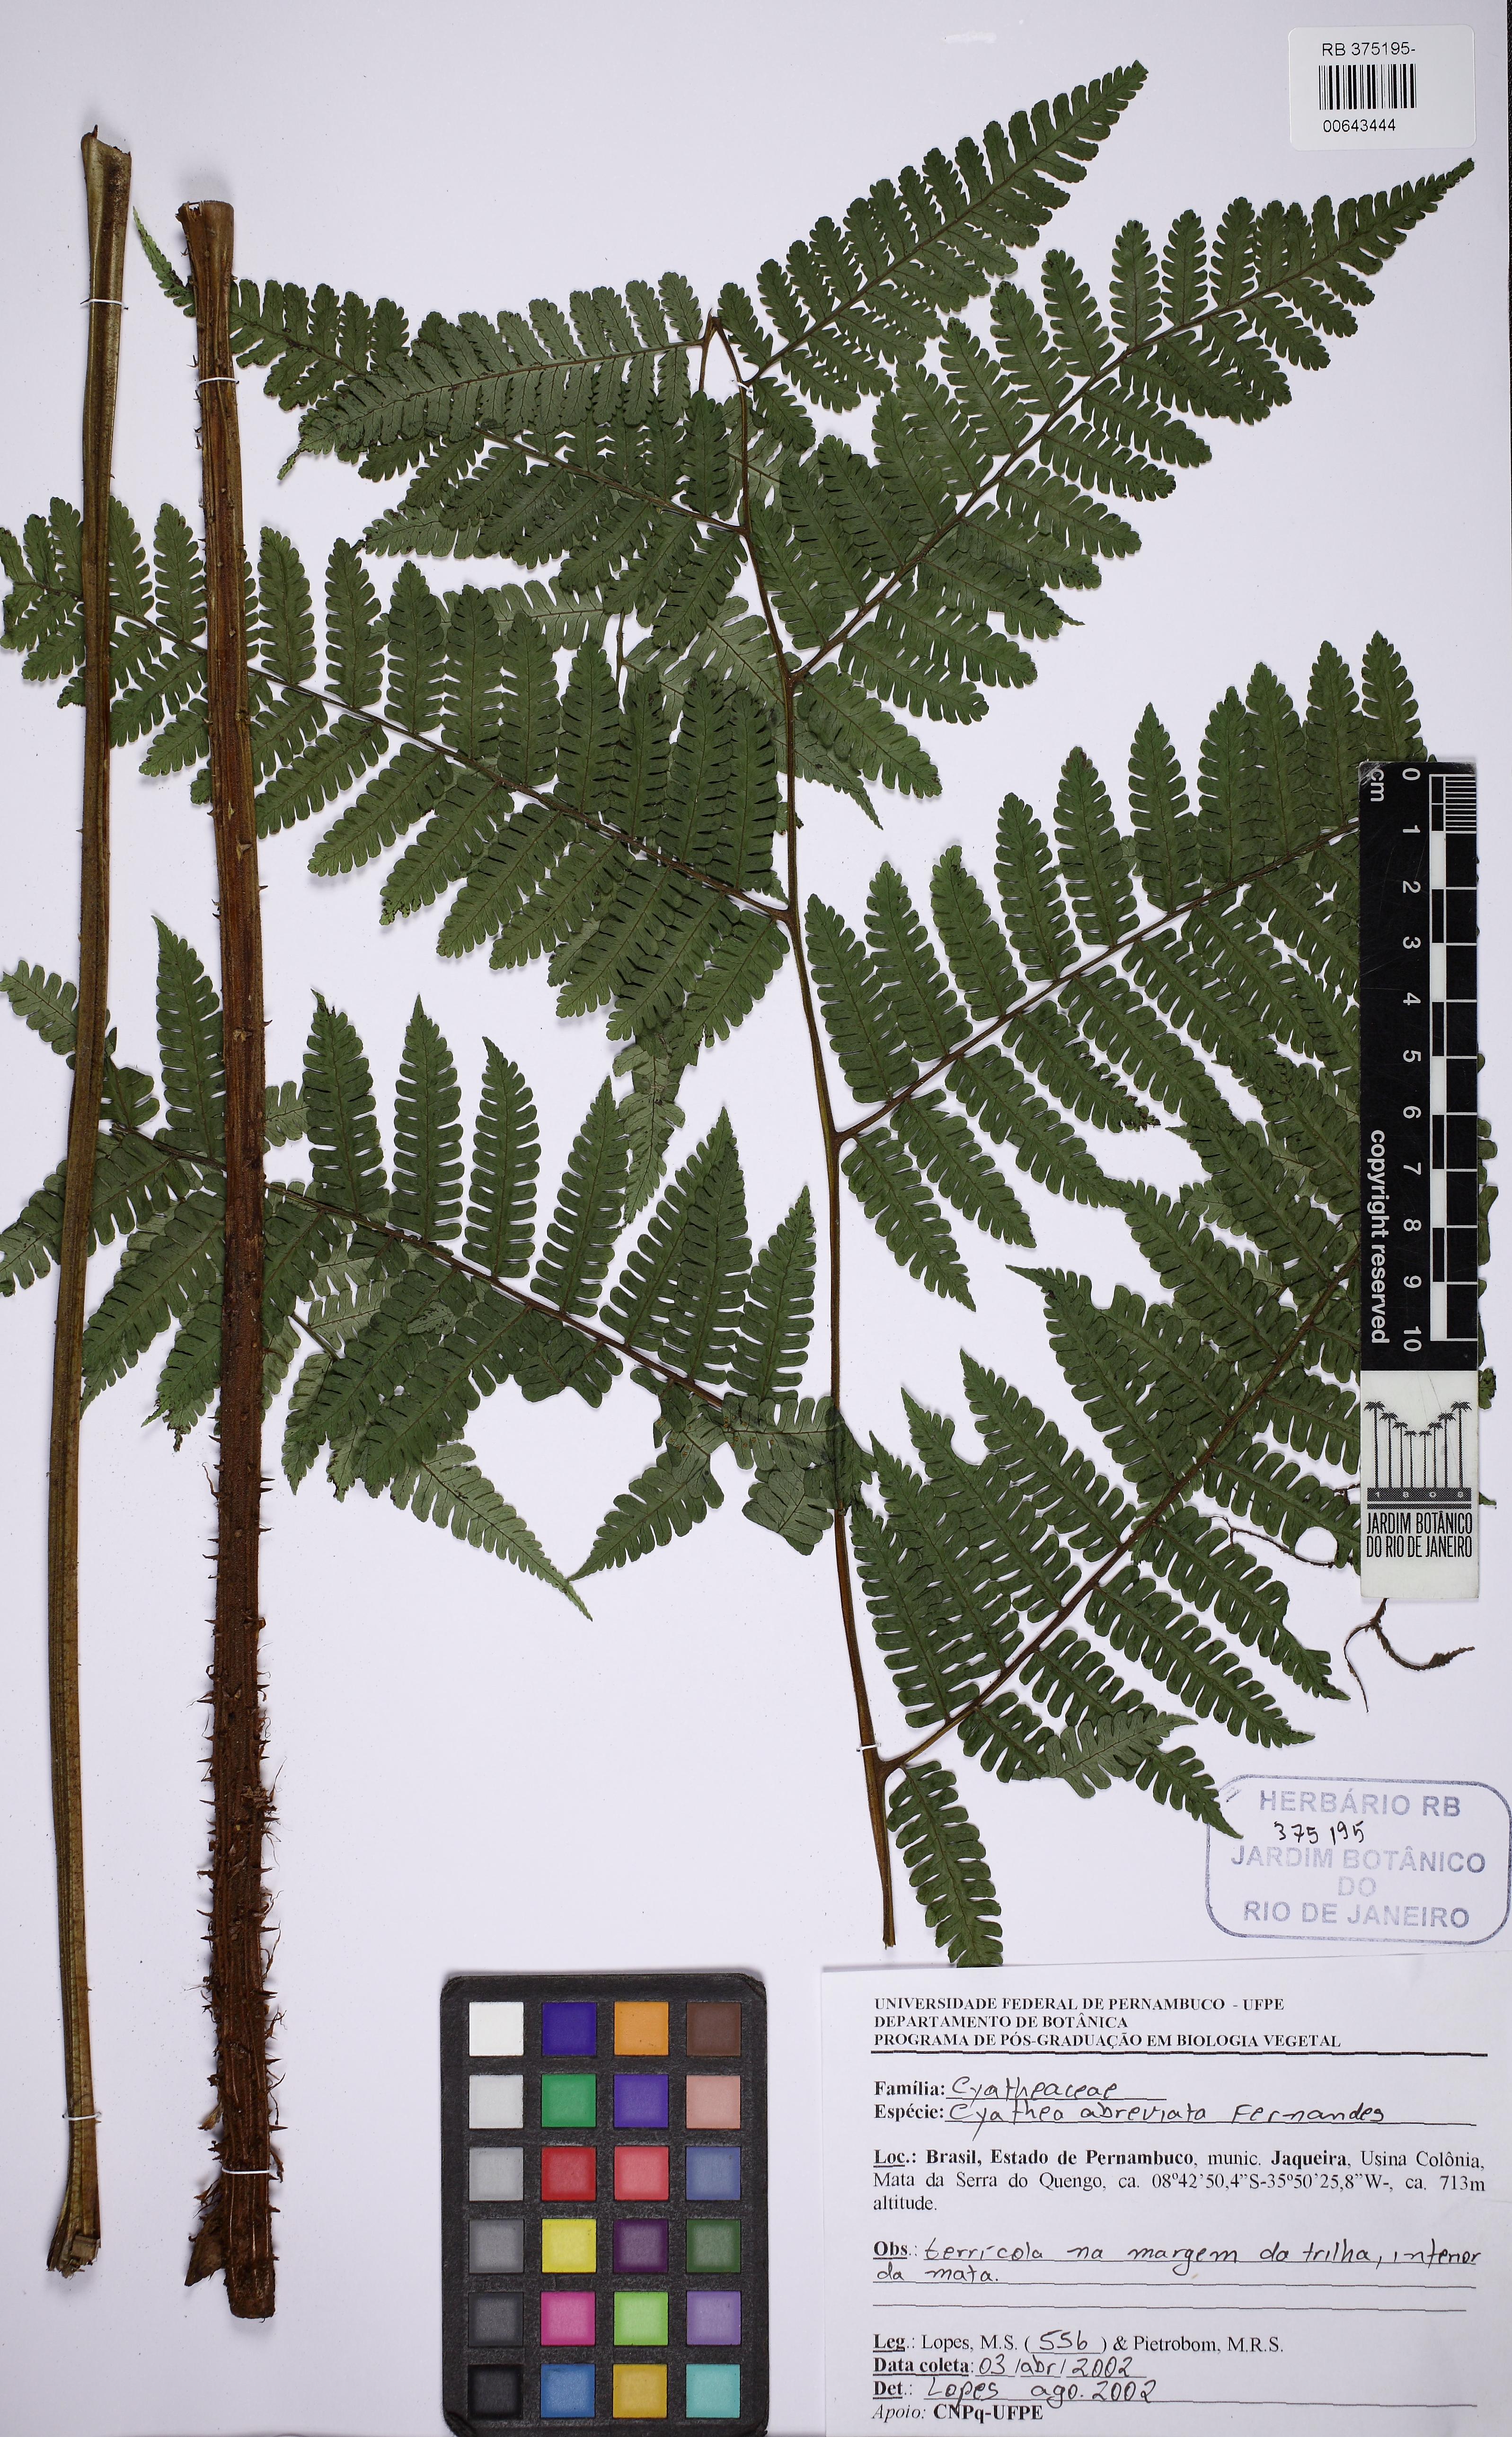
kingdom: Plantae
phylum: Tracheophyta
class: Polypodiopsida
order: Cyatheales
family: Cyatheaceae
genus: Cyathea
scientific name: Cyathea abbreviata
